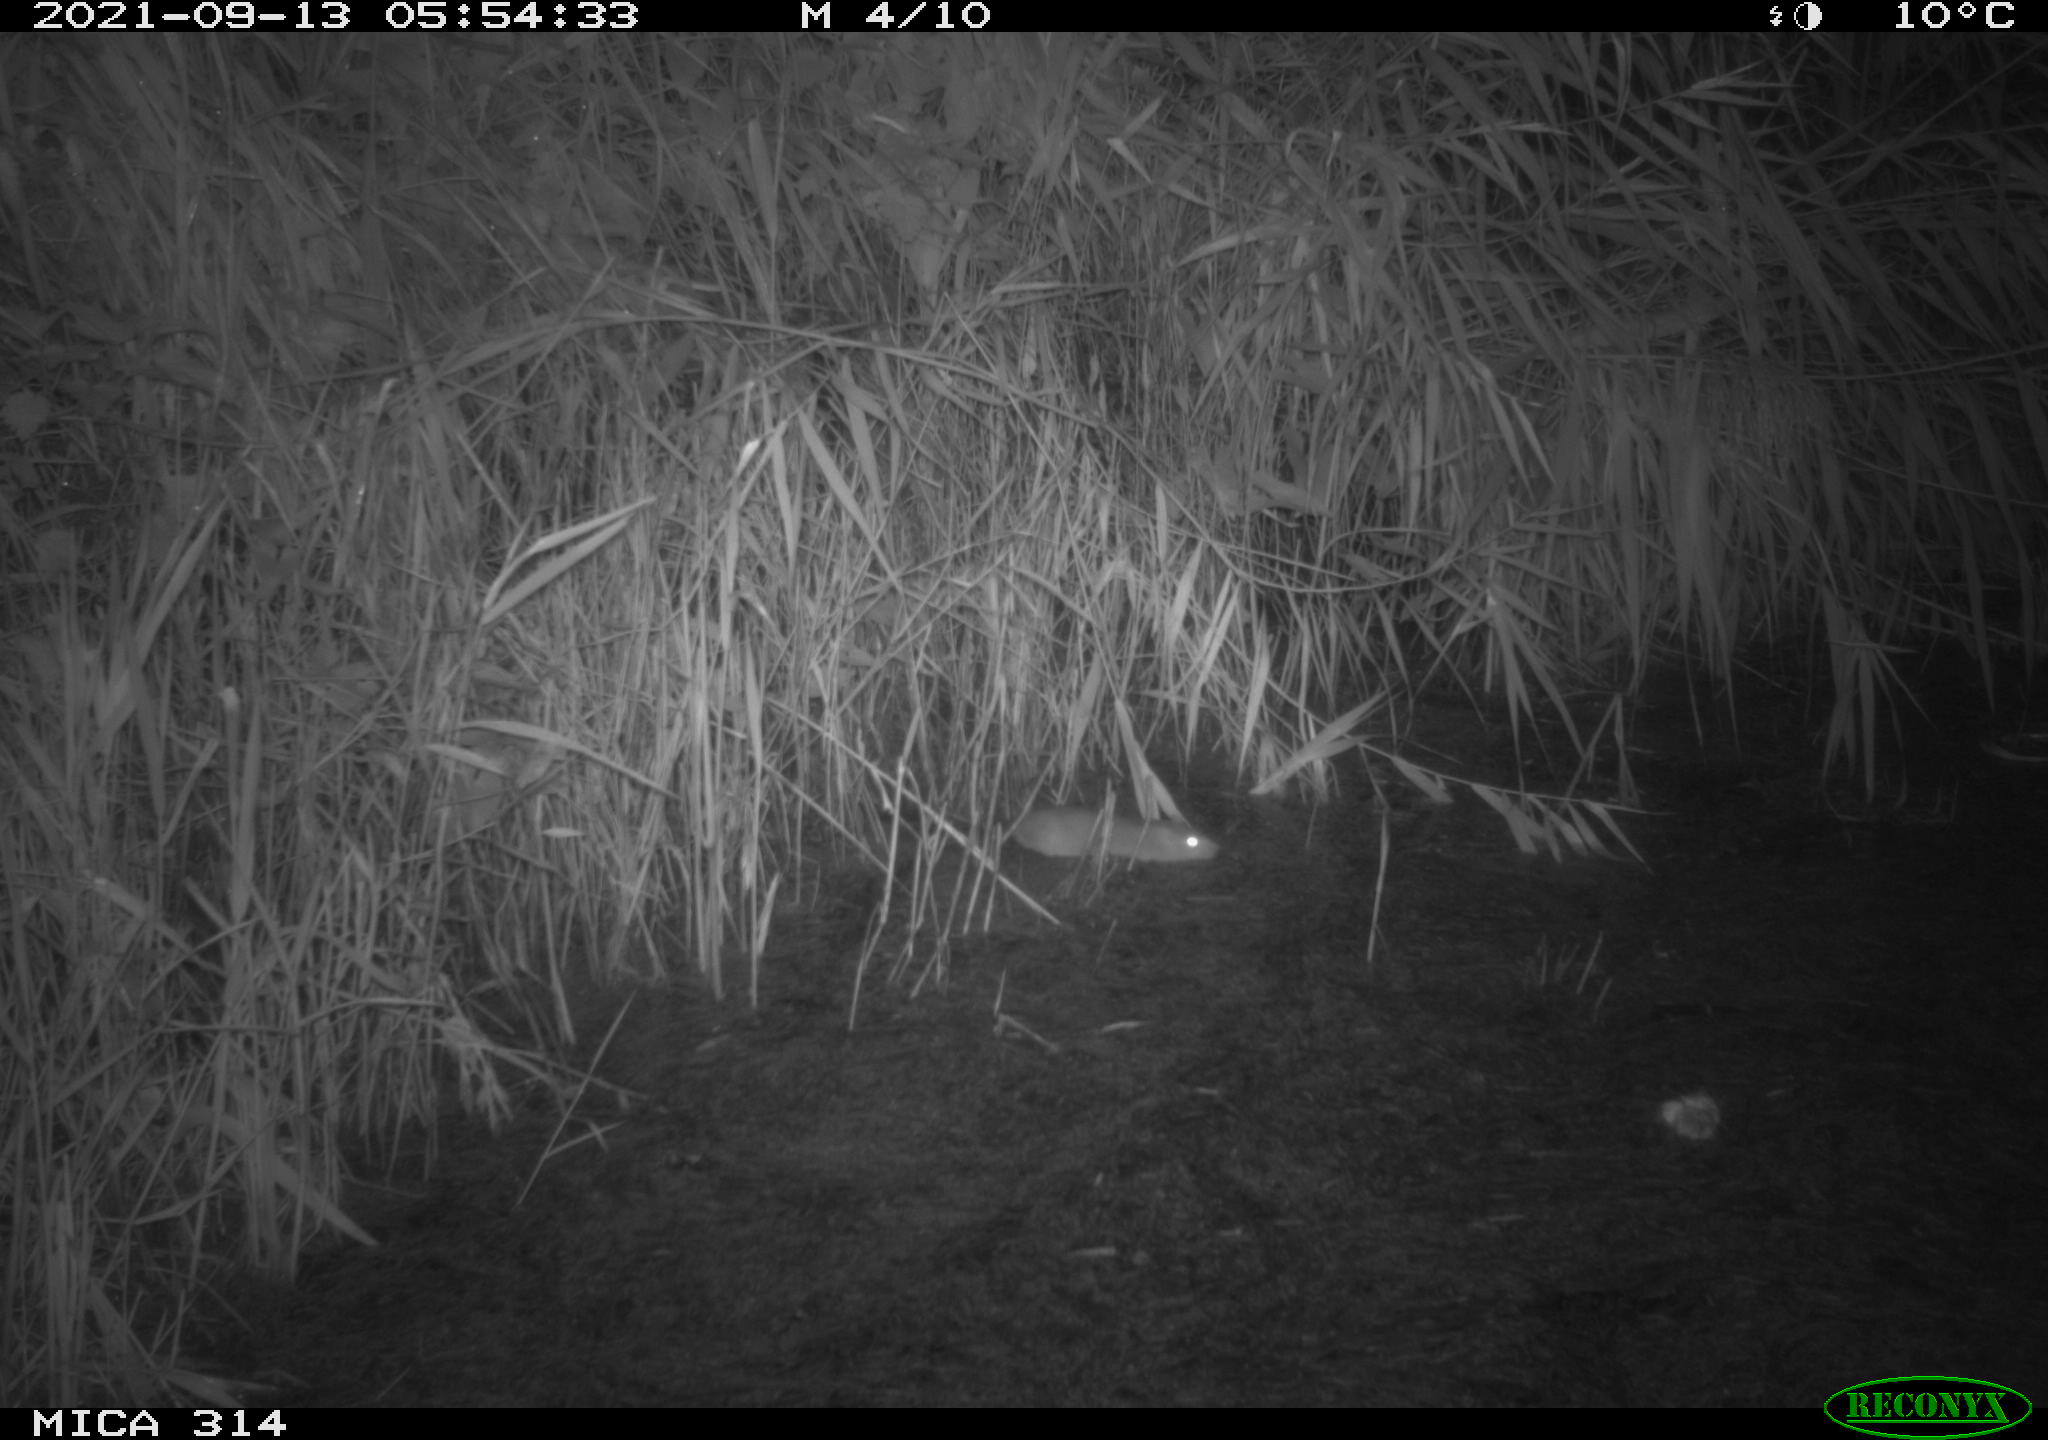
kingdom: Animalia
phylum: Chordata
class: Mammalia
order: Rodentia
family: Muridae
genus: Rattus
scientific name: Rattus norvegicus
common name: Brown rat
